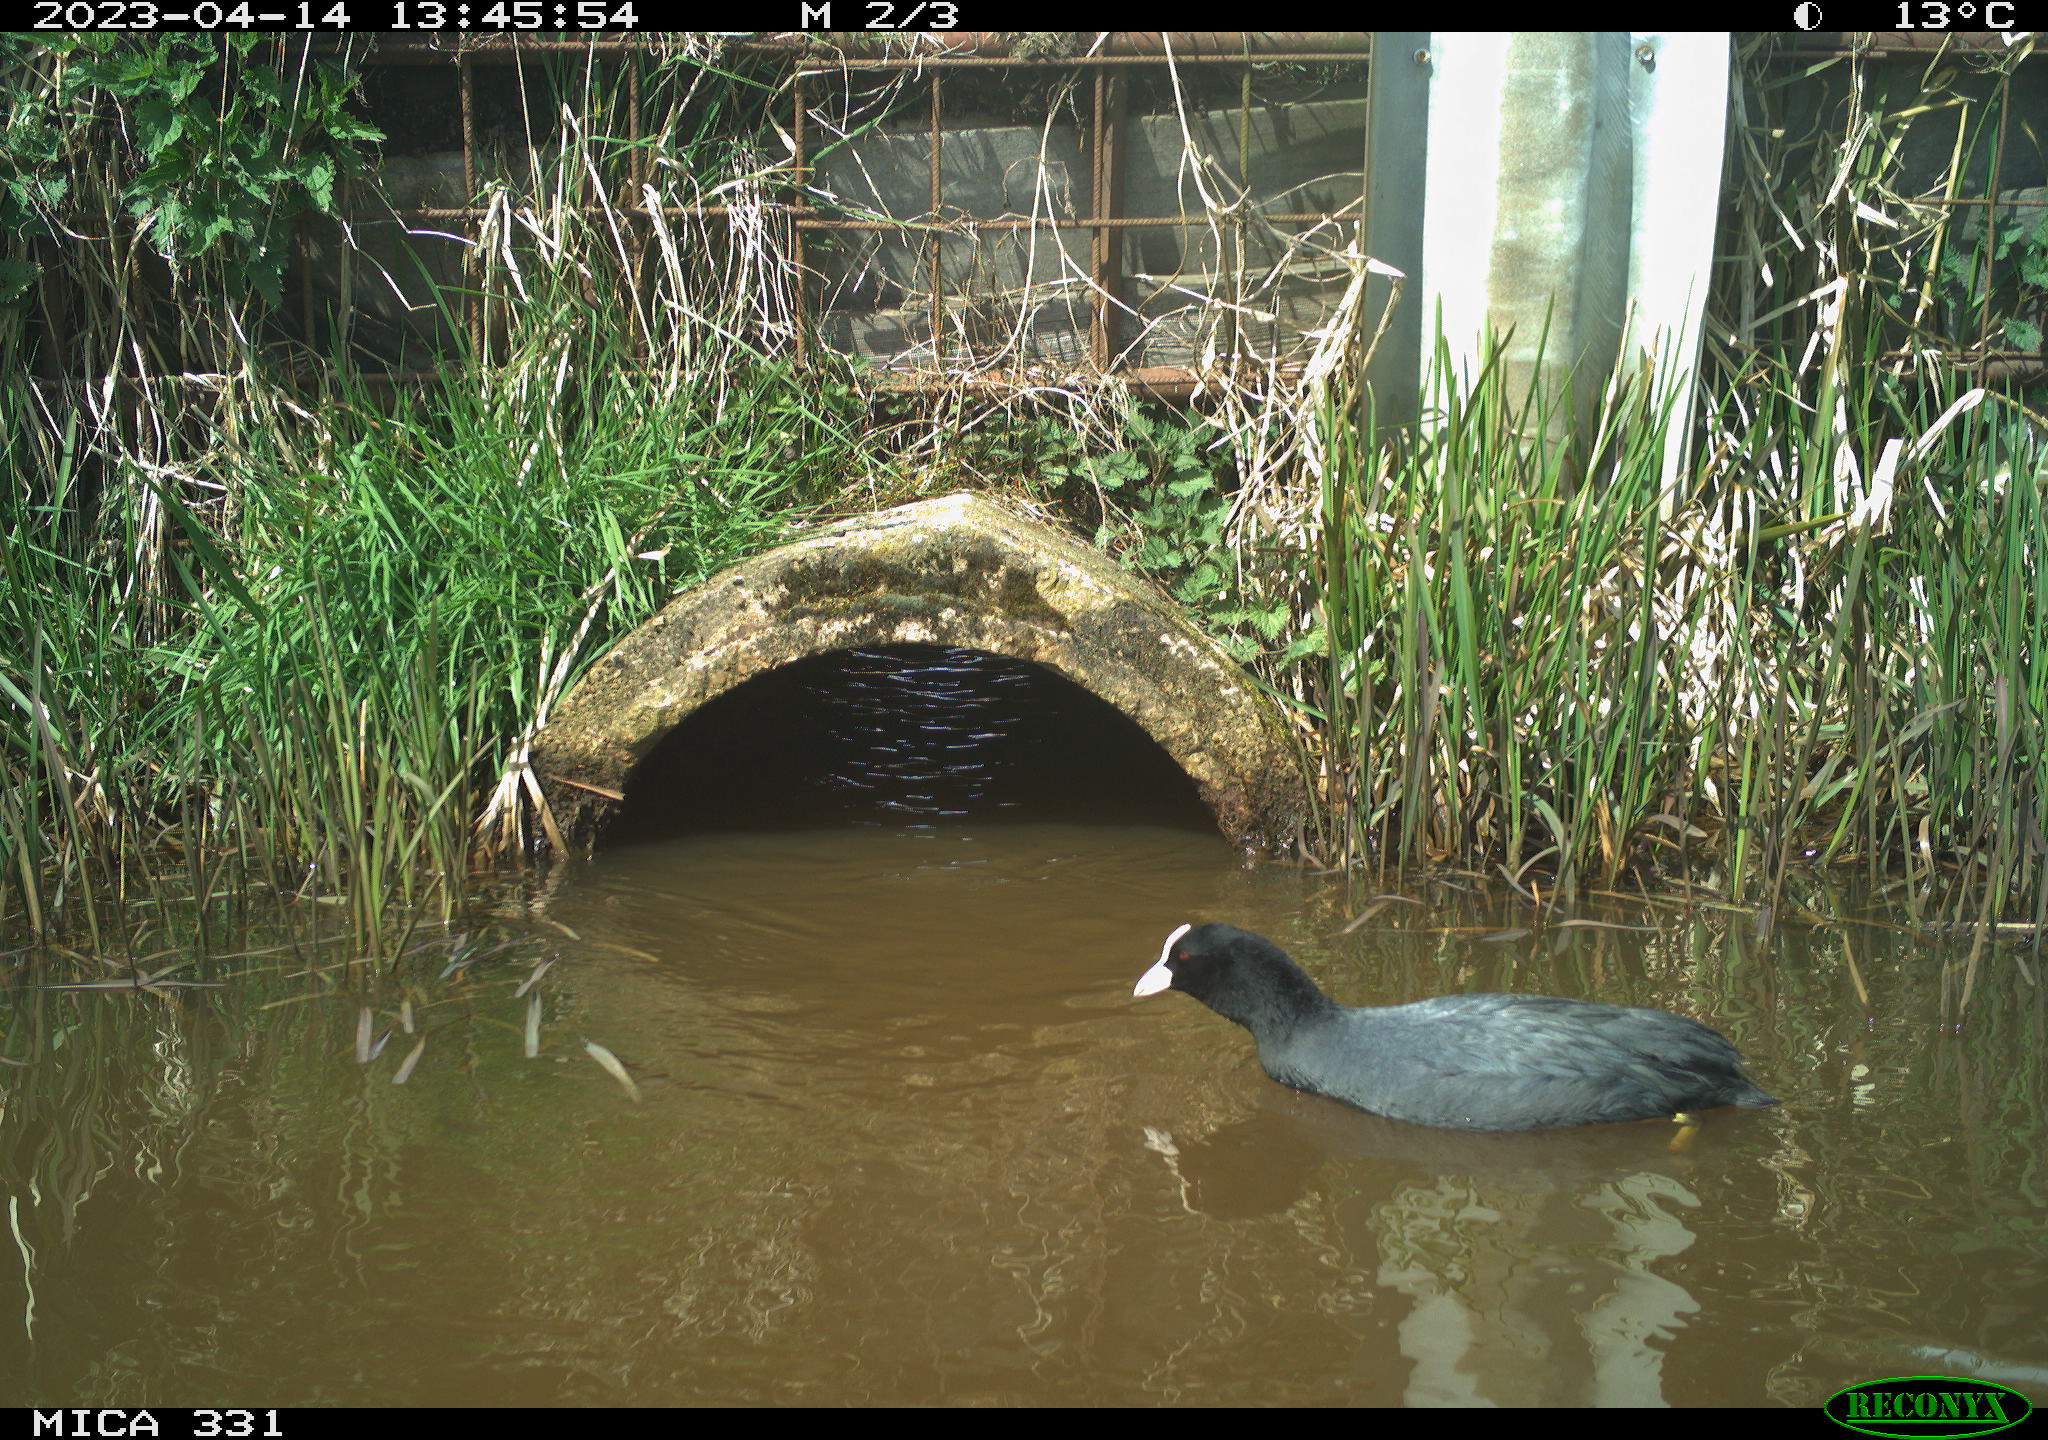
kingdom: Animalia
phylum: Chordata
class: Aves
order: Gruiformes
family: Rallidae
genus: Fulica
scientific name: Fulica atra
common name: Eurasian coot
